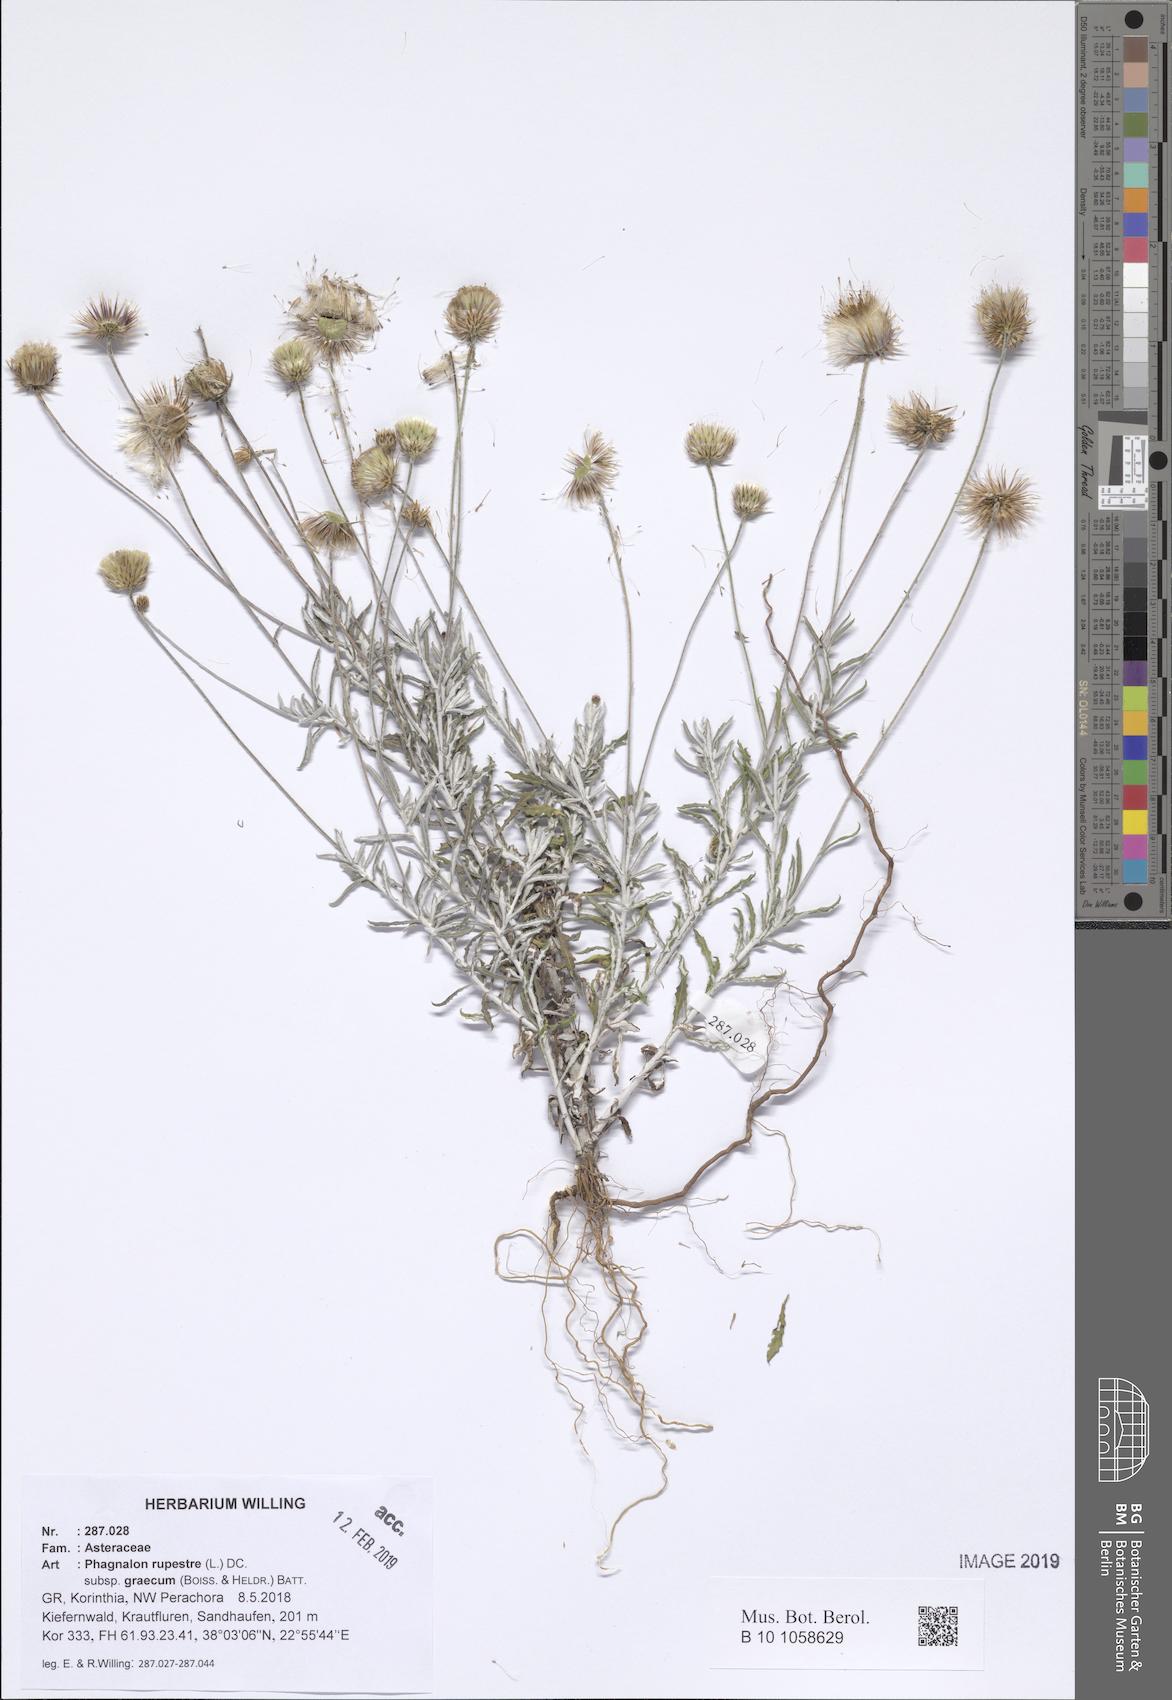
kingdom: Plantae
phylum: Tracheophyta
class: Magnoliopsida
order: Asterales
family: Asteraceae
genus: Phagnalon
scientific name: Phagnalon graecum
